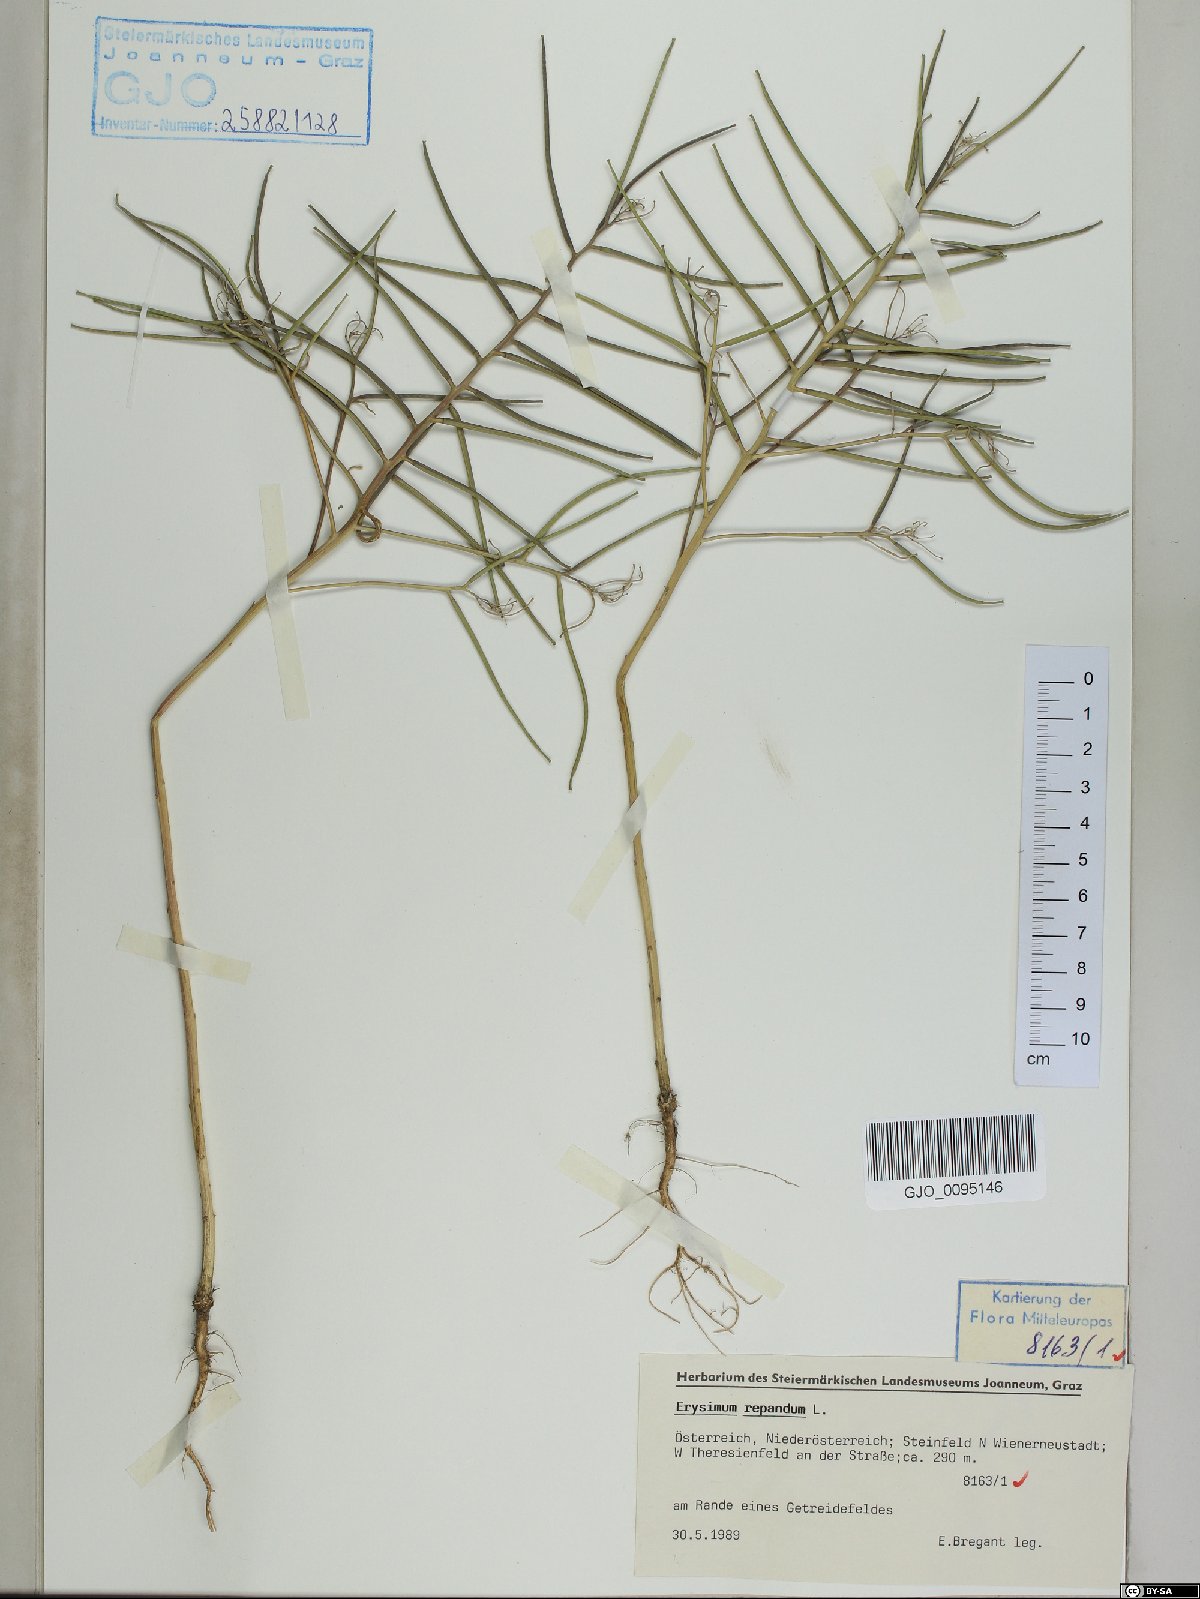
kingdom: Plantae
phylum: Tracheophyta
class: Magnoliopsida
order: Brassicales
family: Brassicaceae
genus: Erysimum
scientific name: Erysimum repandum
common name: Spreading wallflower
